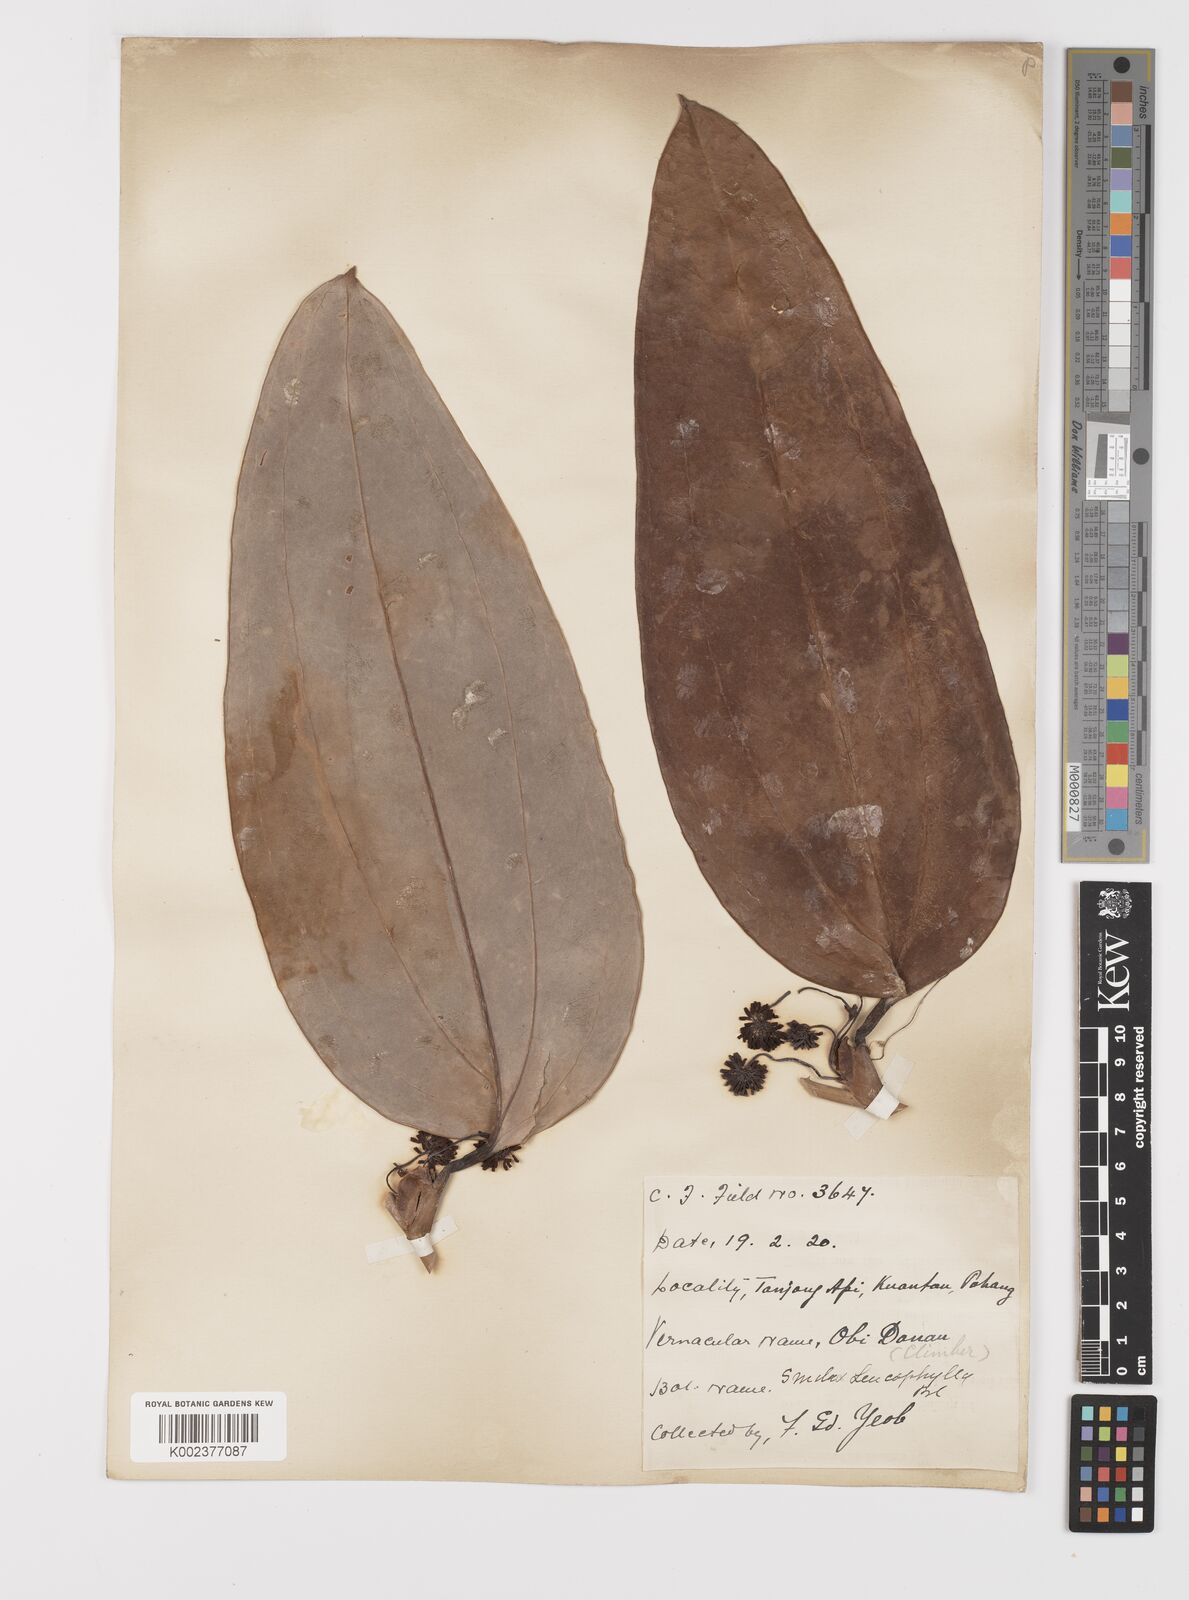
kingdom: Plantae
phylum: Tracheophyta
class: Liliopsida
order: Liliales
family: Smilacaceae
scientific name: Smilacaceae
